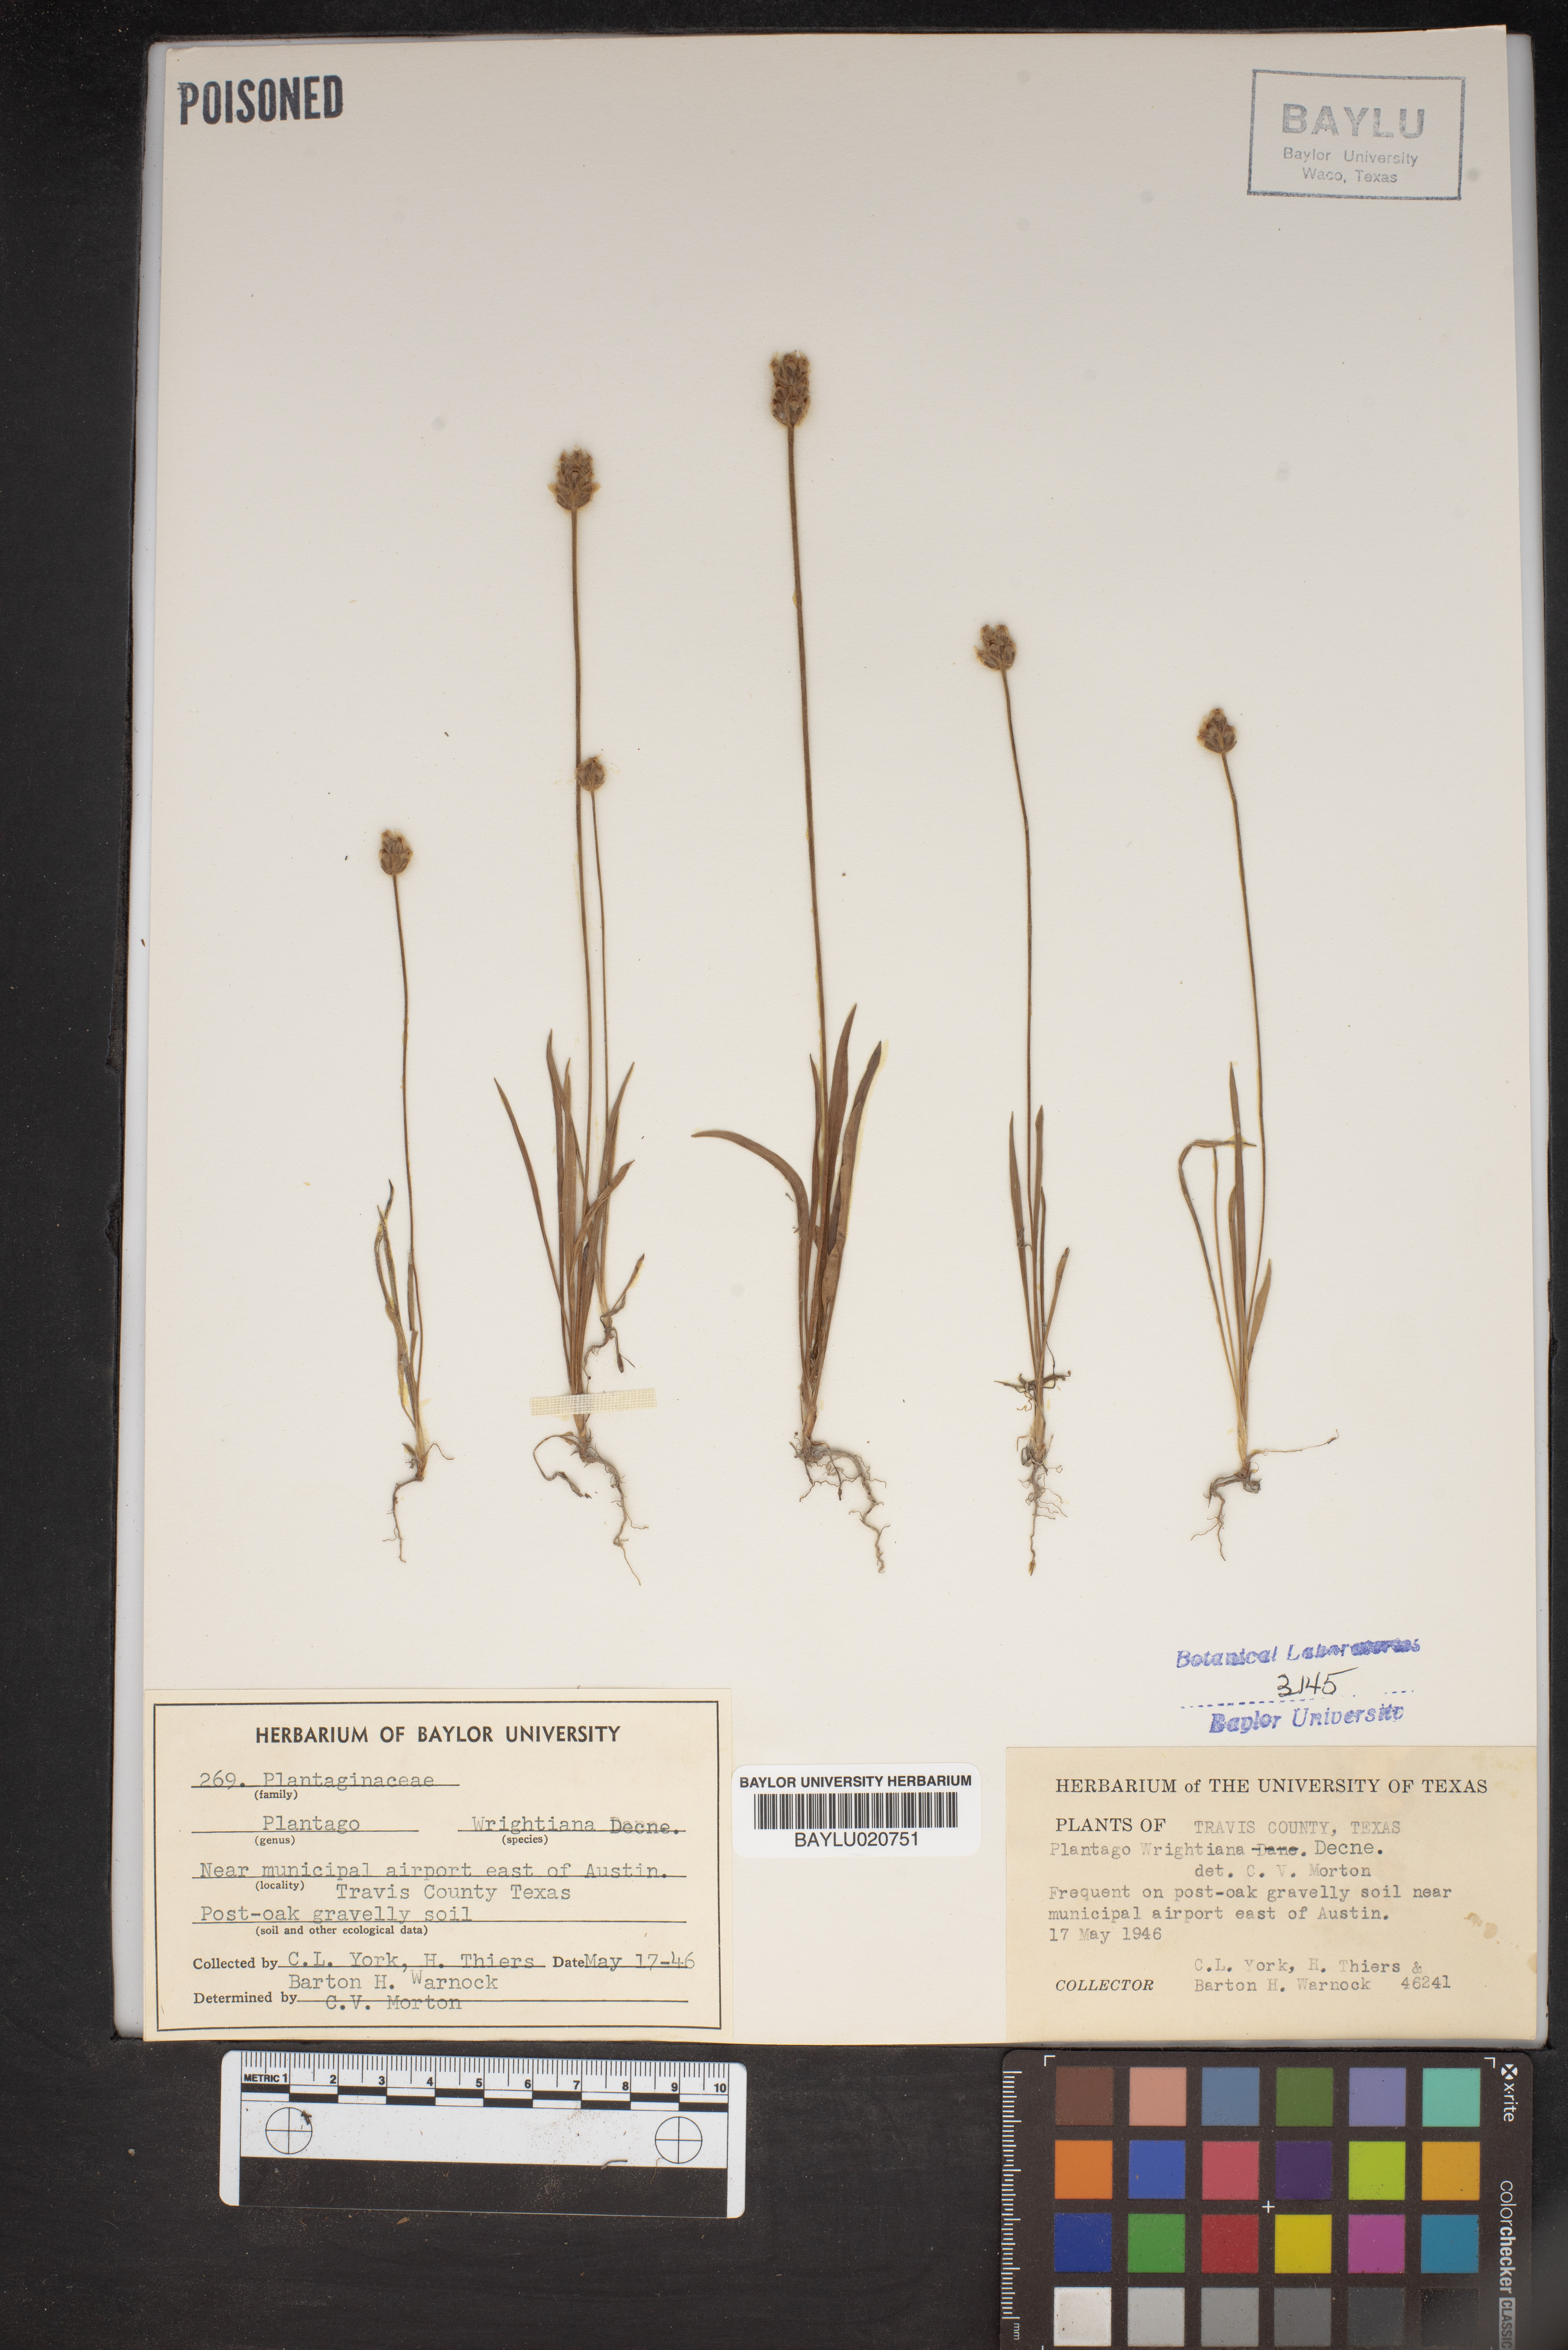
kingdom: Plantae
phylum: Tracheophyta
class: Magnoliopsida
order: Lamiales
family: Plantaginaceae
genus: Plantago
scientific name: Plantago wrightiana
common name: Wright's plantain
